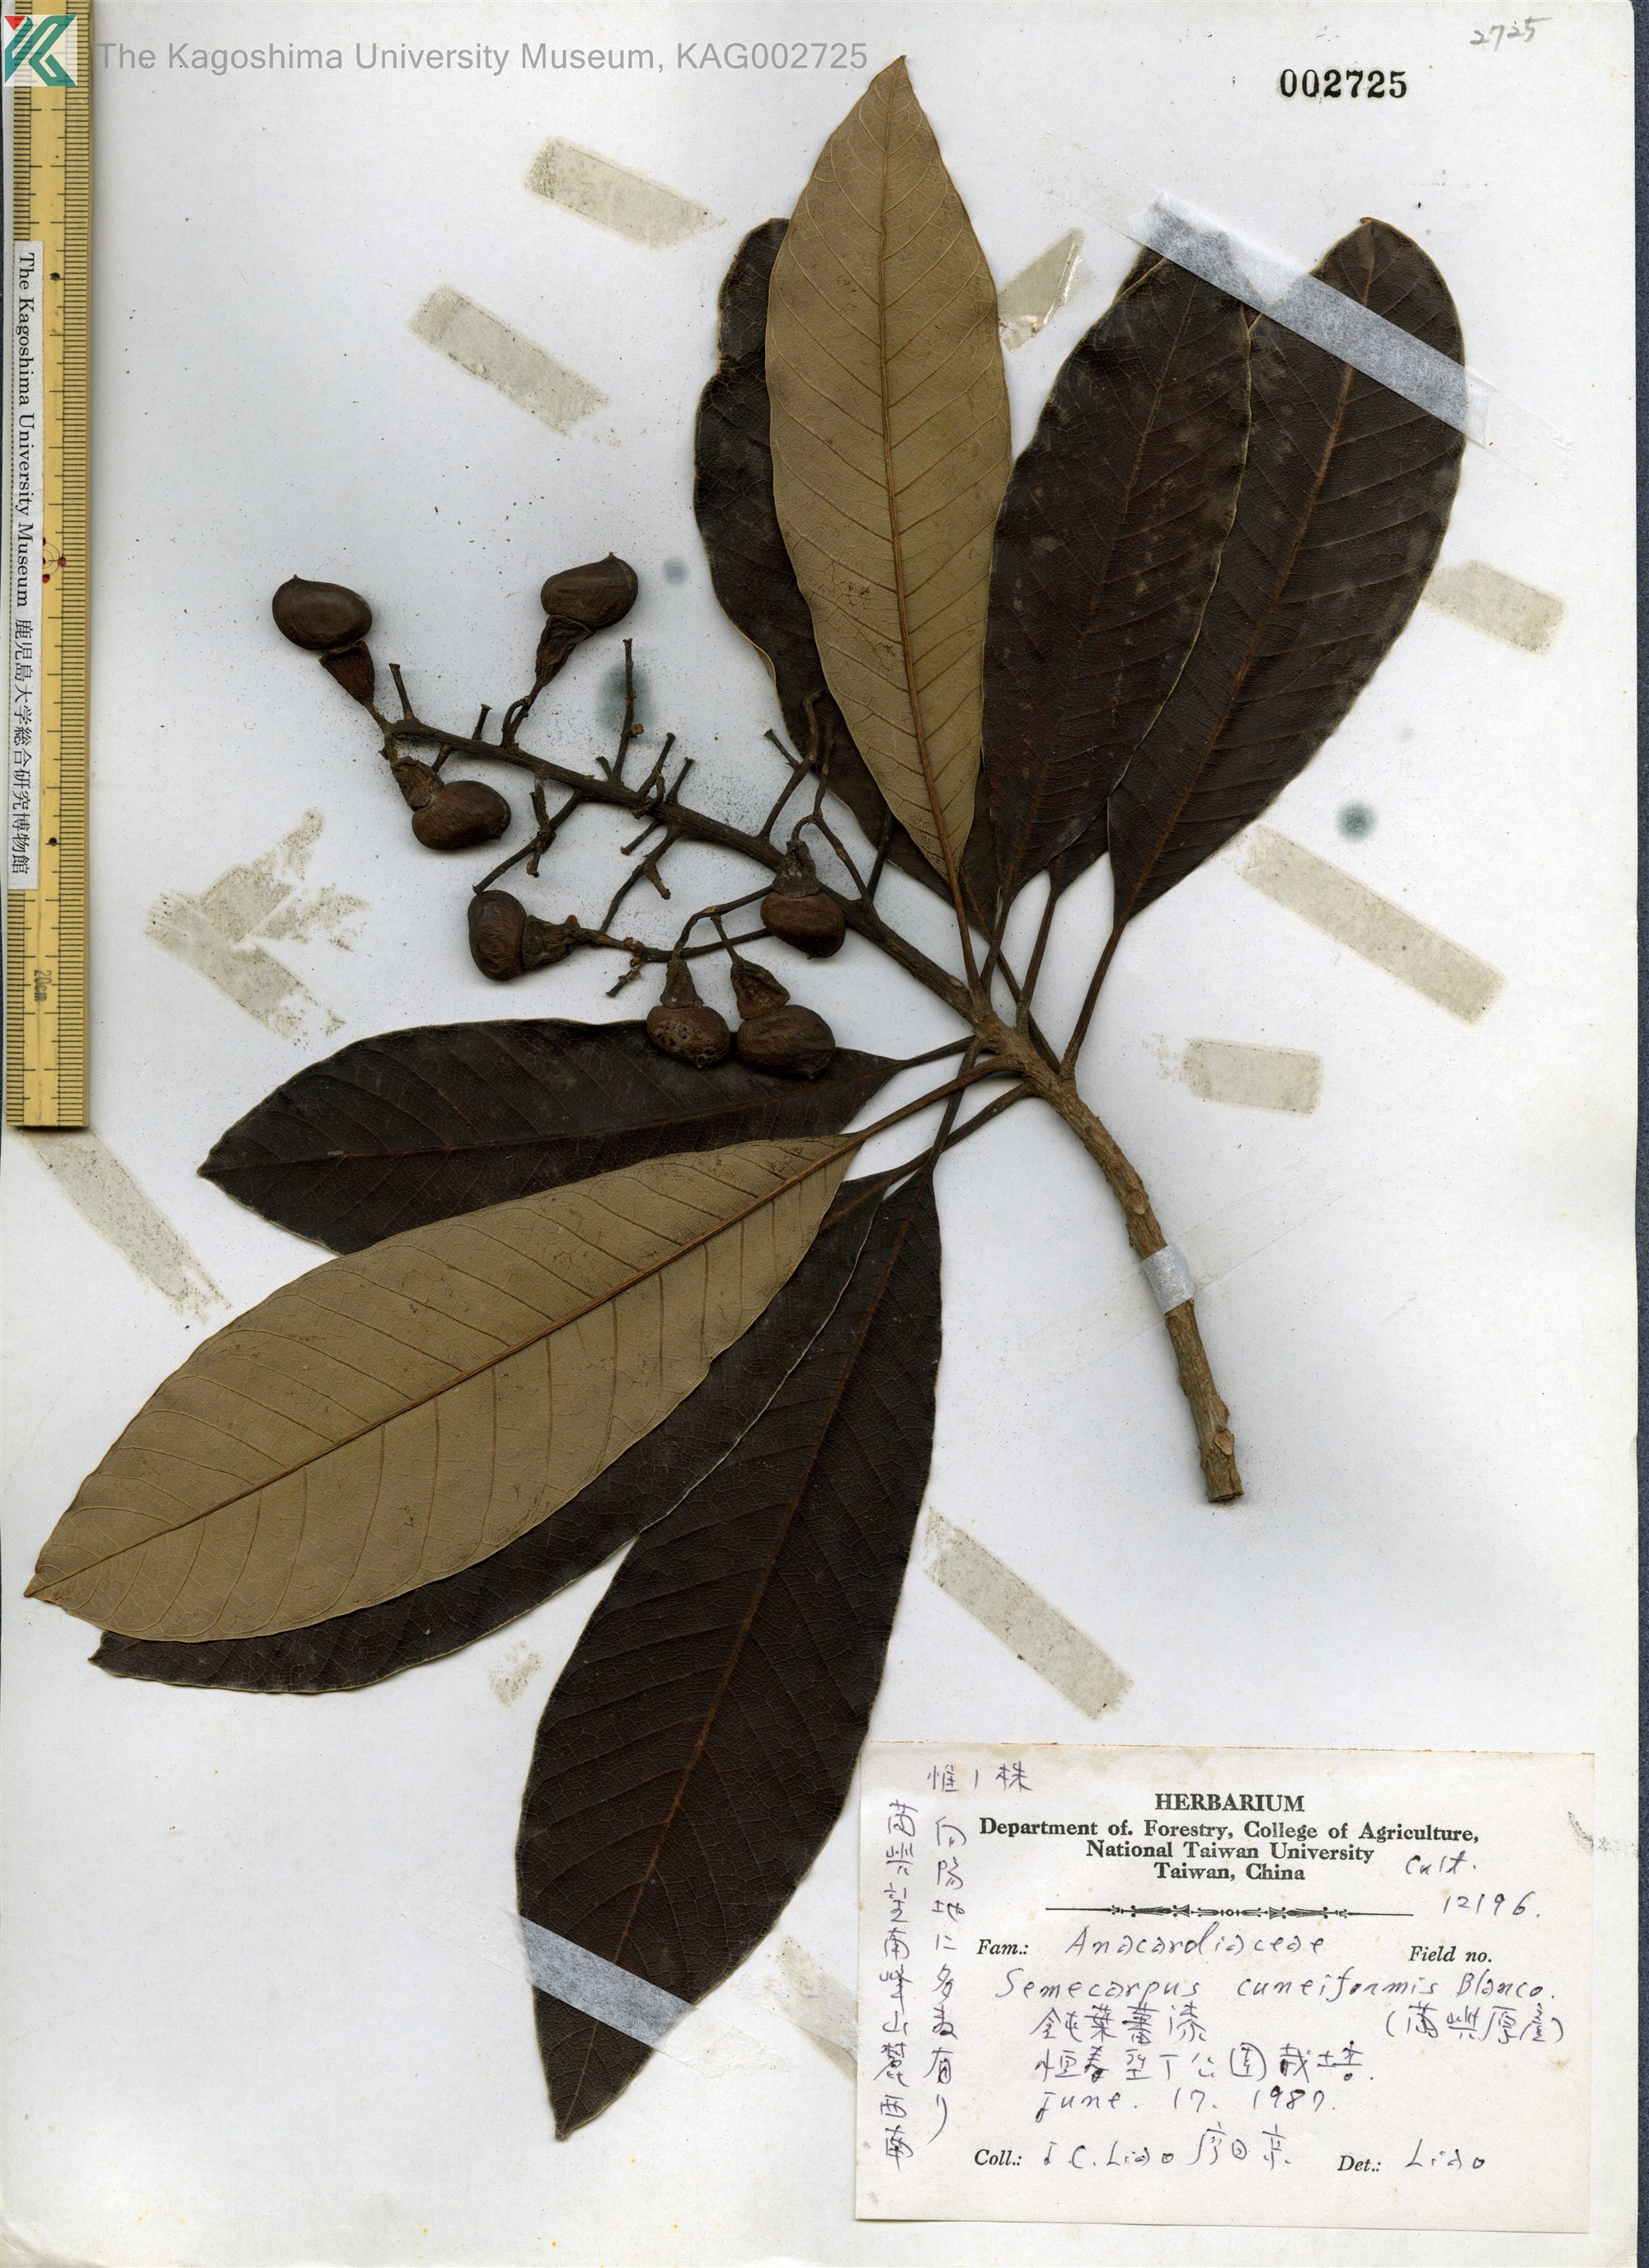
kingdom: Plantae
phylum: Tracheophyta
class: Magnoliopsida
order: Sapindales
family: Anacardiaceae
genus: Semecarpus
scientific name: Semecarpus cuneiformis
